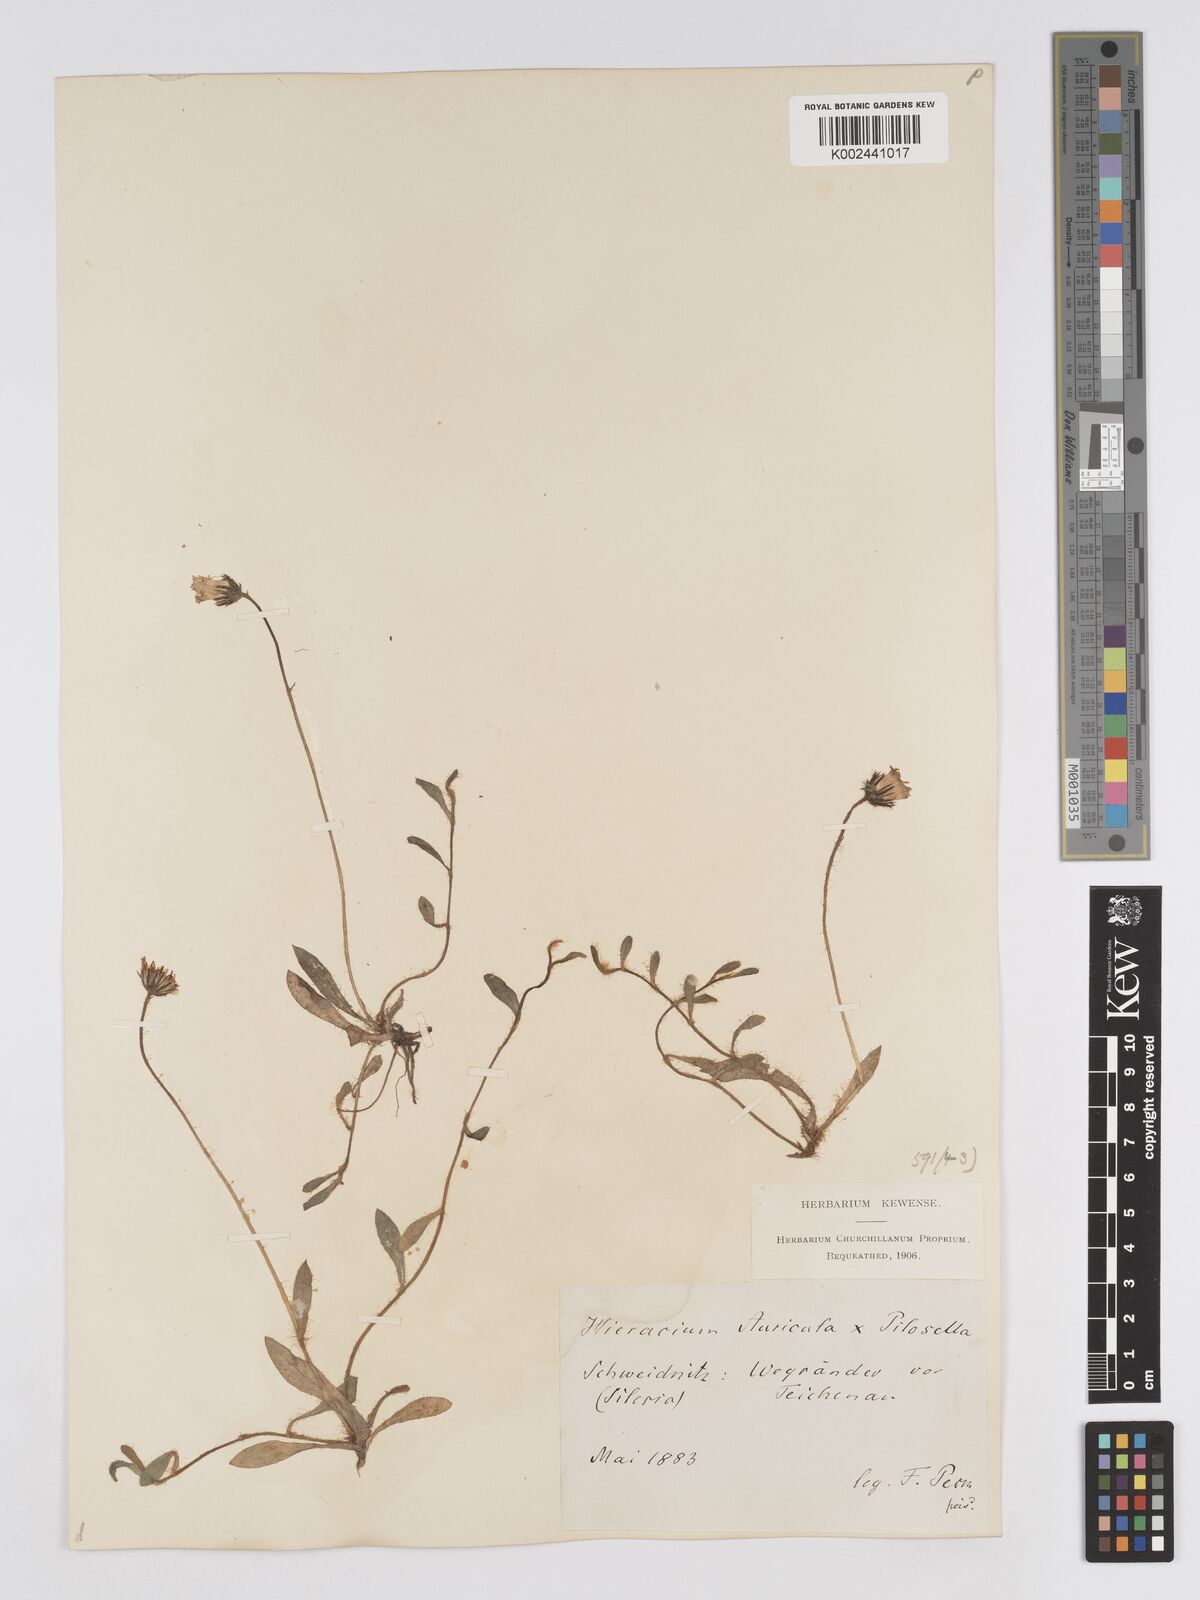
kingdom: Plantae
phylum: Tracheophyta
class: Magnoliopsida
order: Asterales
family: Asteraceae
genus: Pilosella
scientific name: Pilosella schultesii
